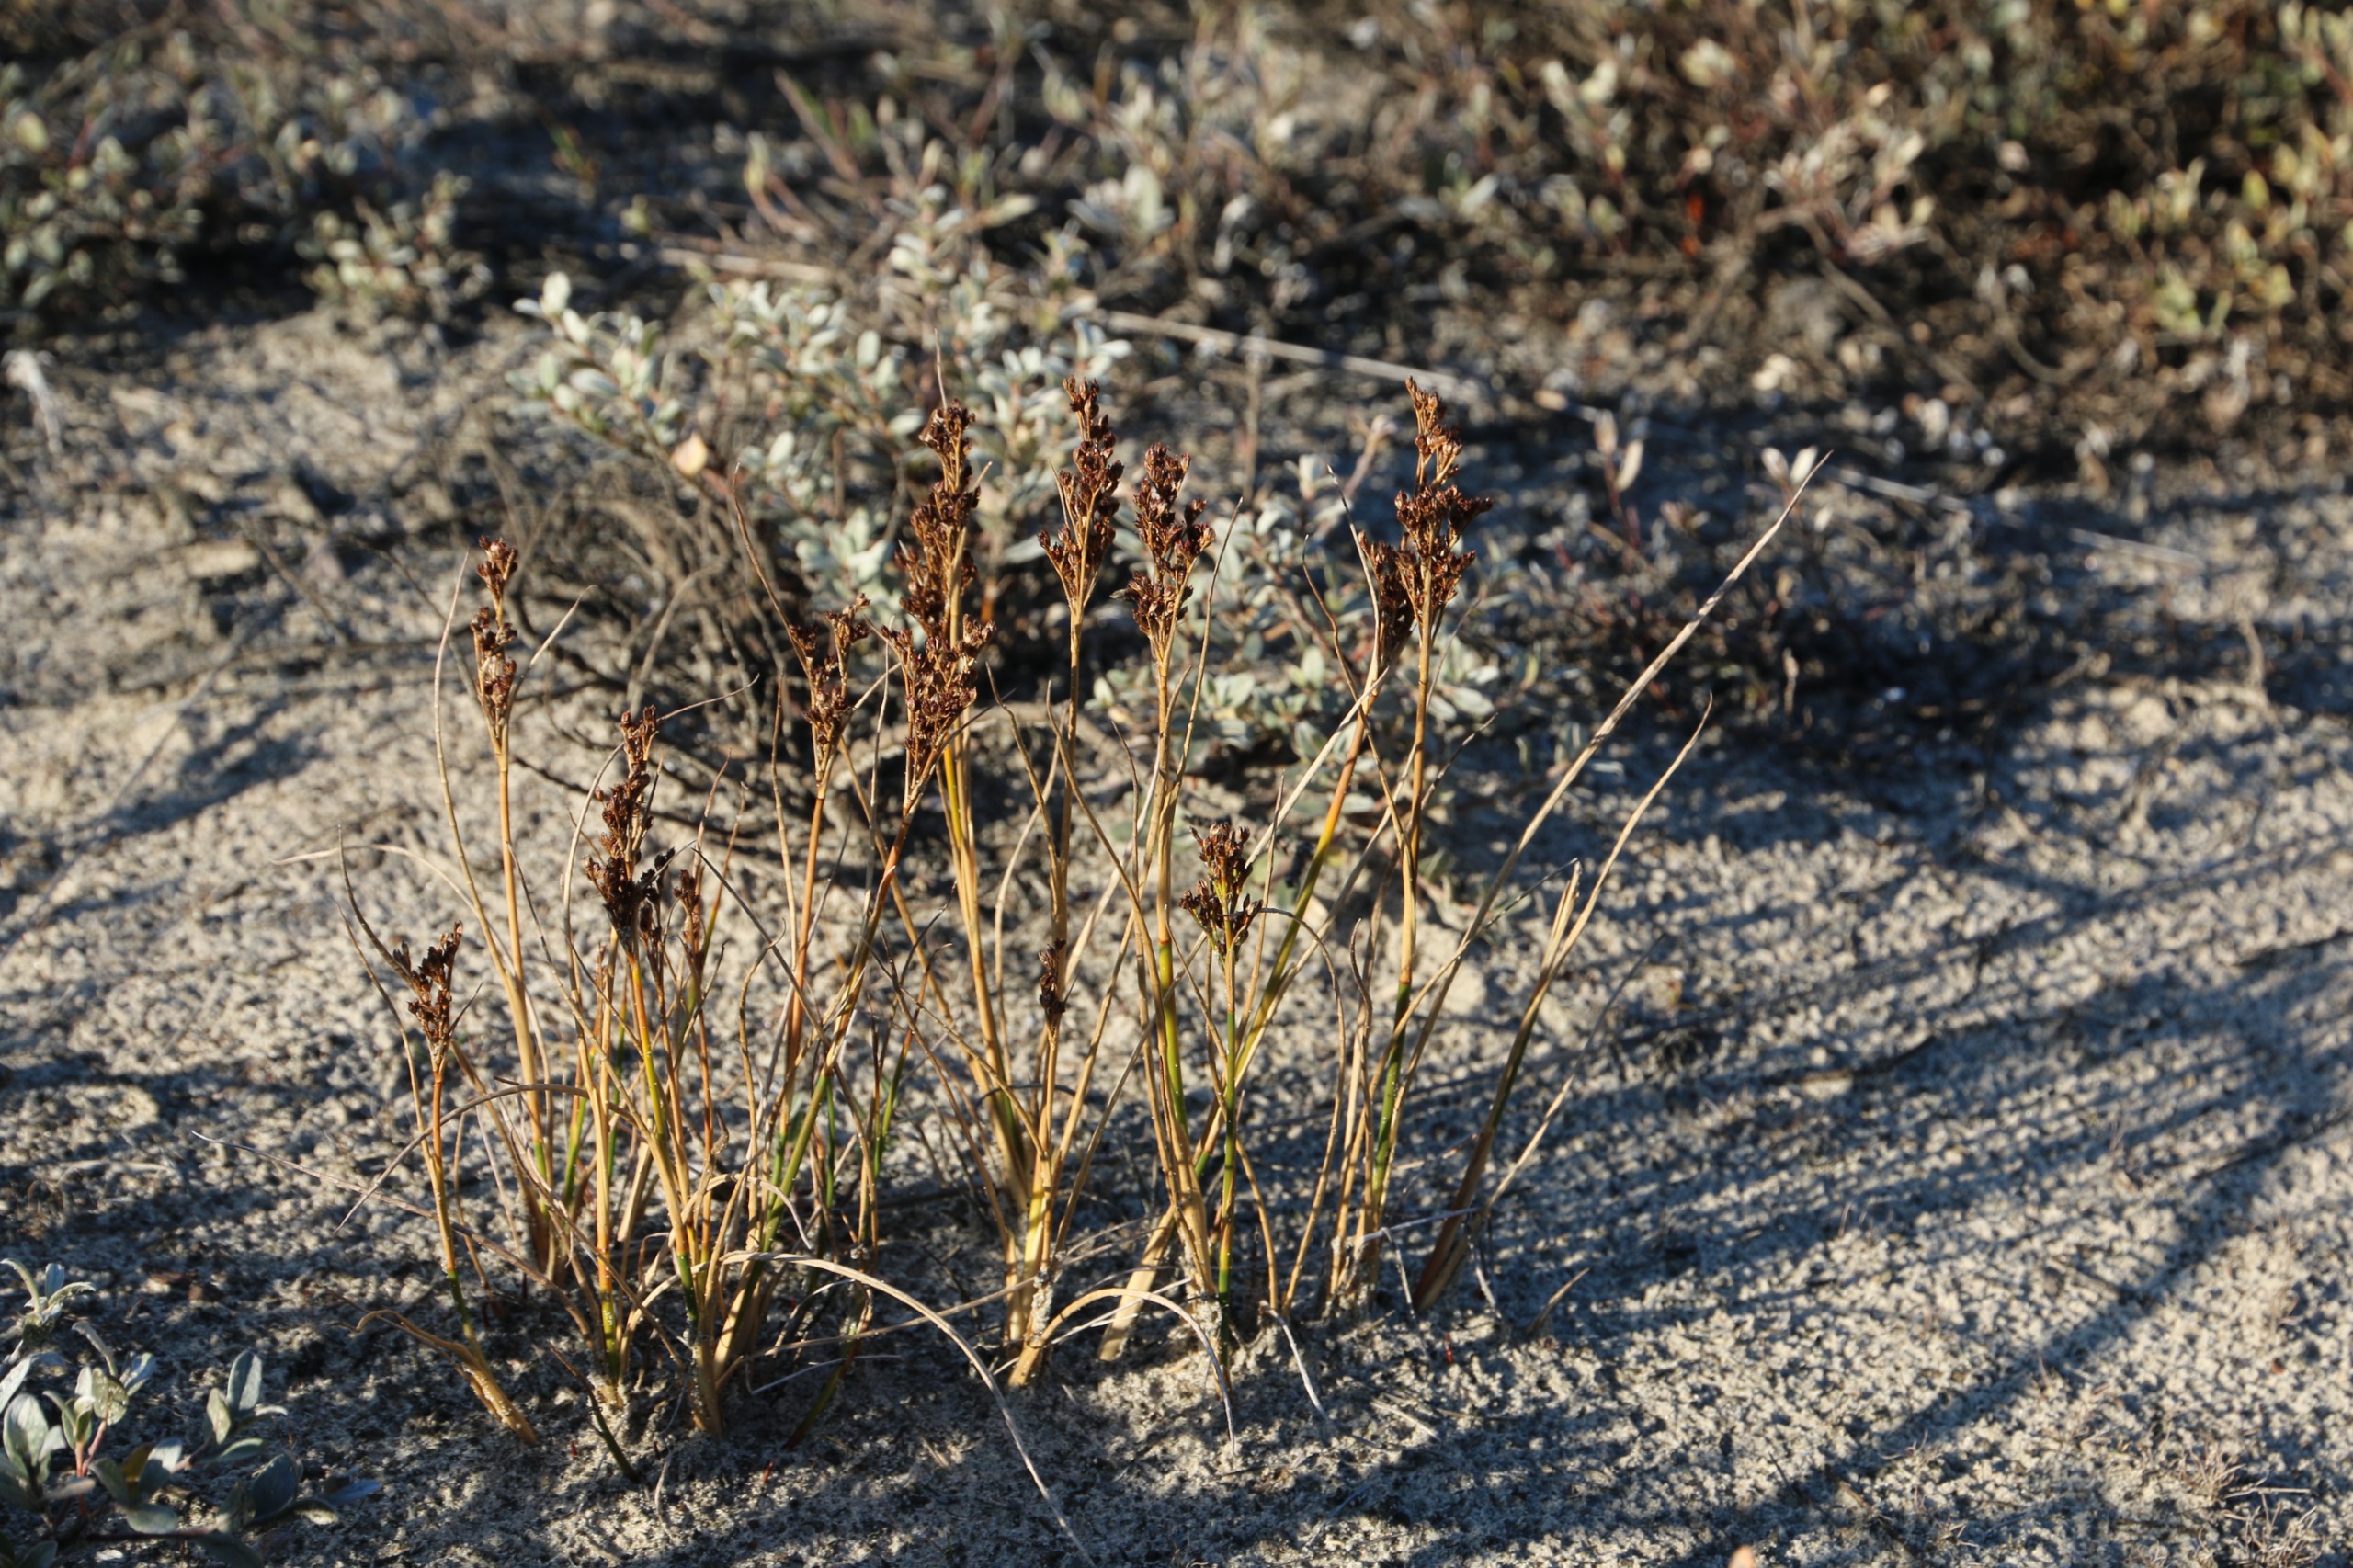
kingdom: Plantae
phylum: Tracheophyta
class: Liliopsida
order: Poales
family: Juncaceae
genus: Juncus
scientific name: Juncus anceps
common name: Sand-siv
